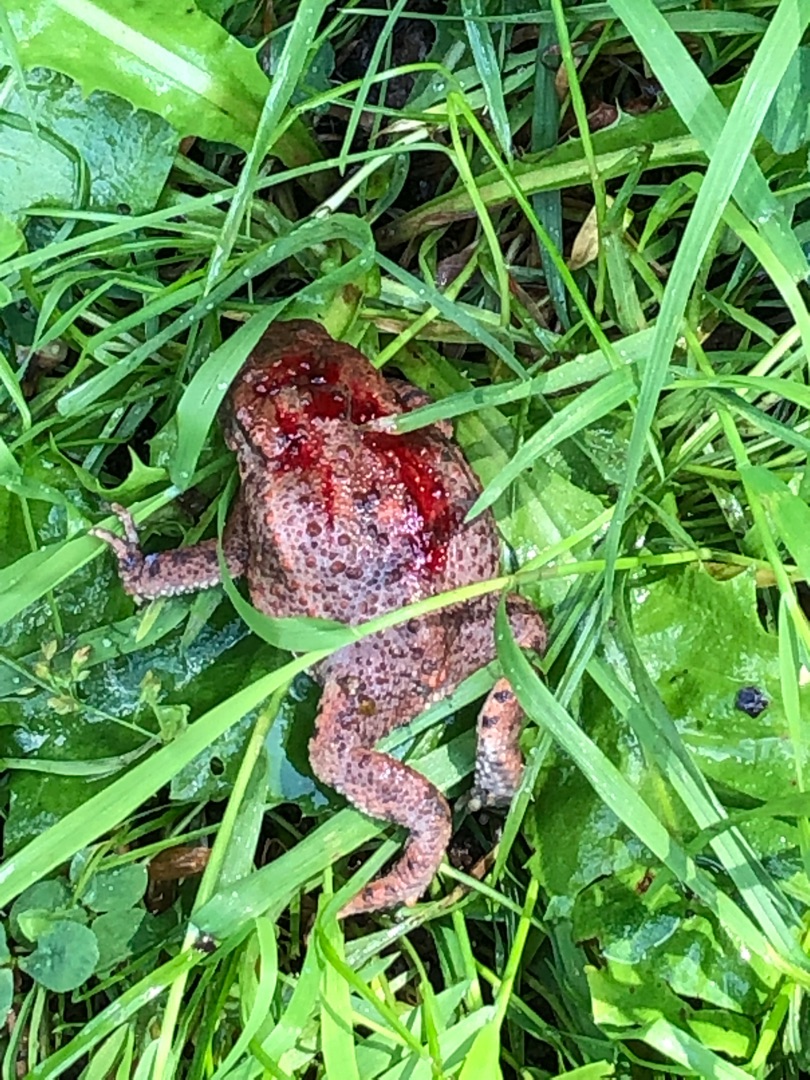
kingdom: Animalia
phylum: Chordata
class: Amphibia
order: Anura
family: Bufonidae
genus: Bufo
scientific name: Bufo bufo
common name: Skrubtudse
